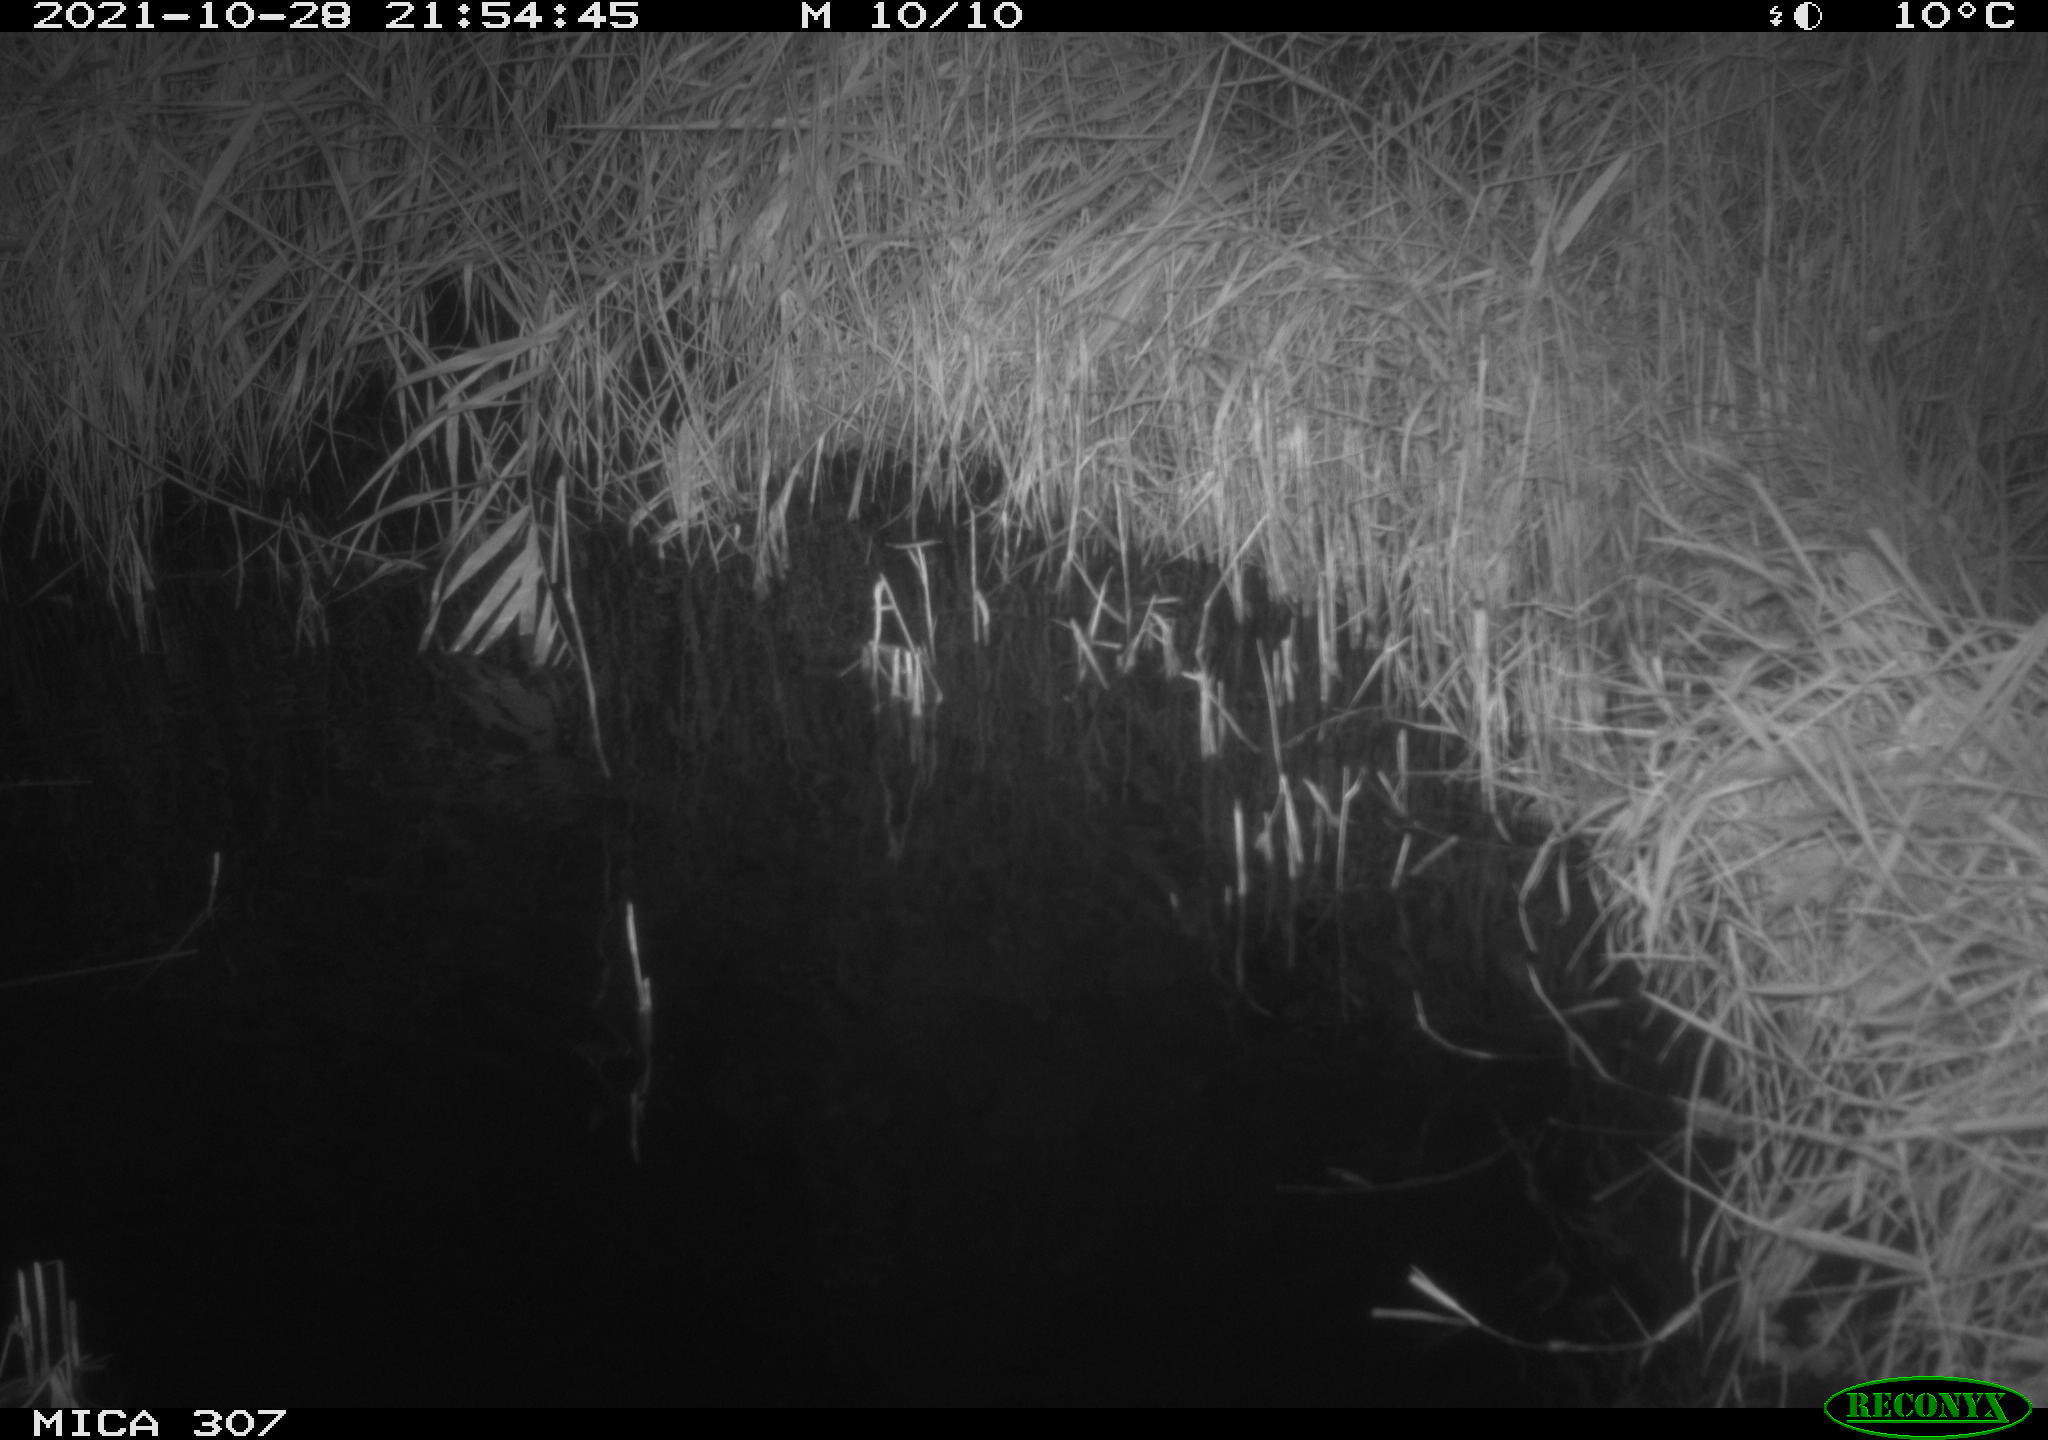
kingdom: Animalia
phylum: Chordata
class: Mammalia
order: Rodentia
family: Muridae
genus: Rattus
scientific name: Rattus norvegicus
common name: Brown rat
